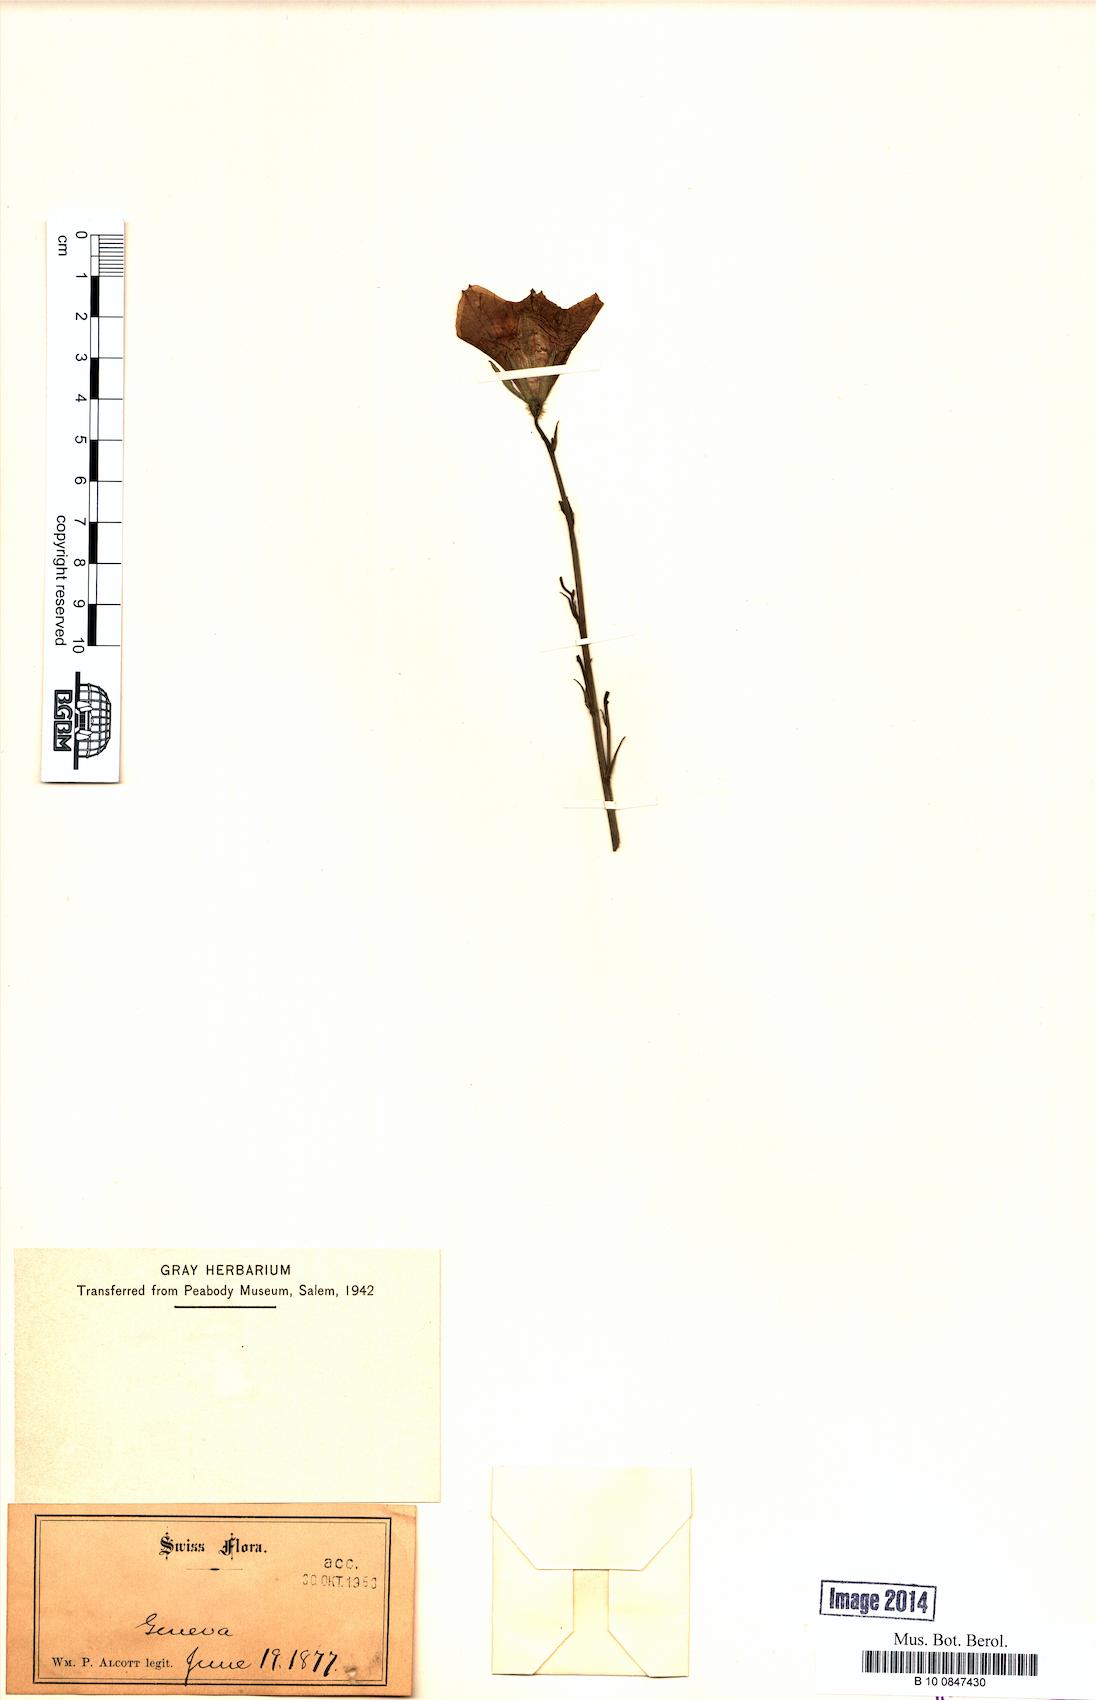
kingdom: Plantae
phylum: Tracheophyta
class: Magnoliopsida
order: Asterales
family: Campanulaceae
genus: Campanula
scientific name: Campanula thyrsoides
